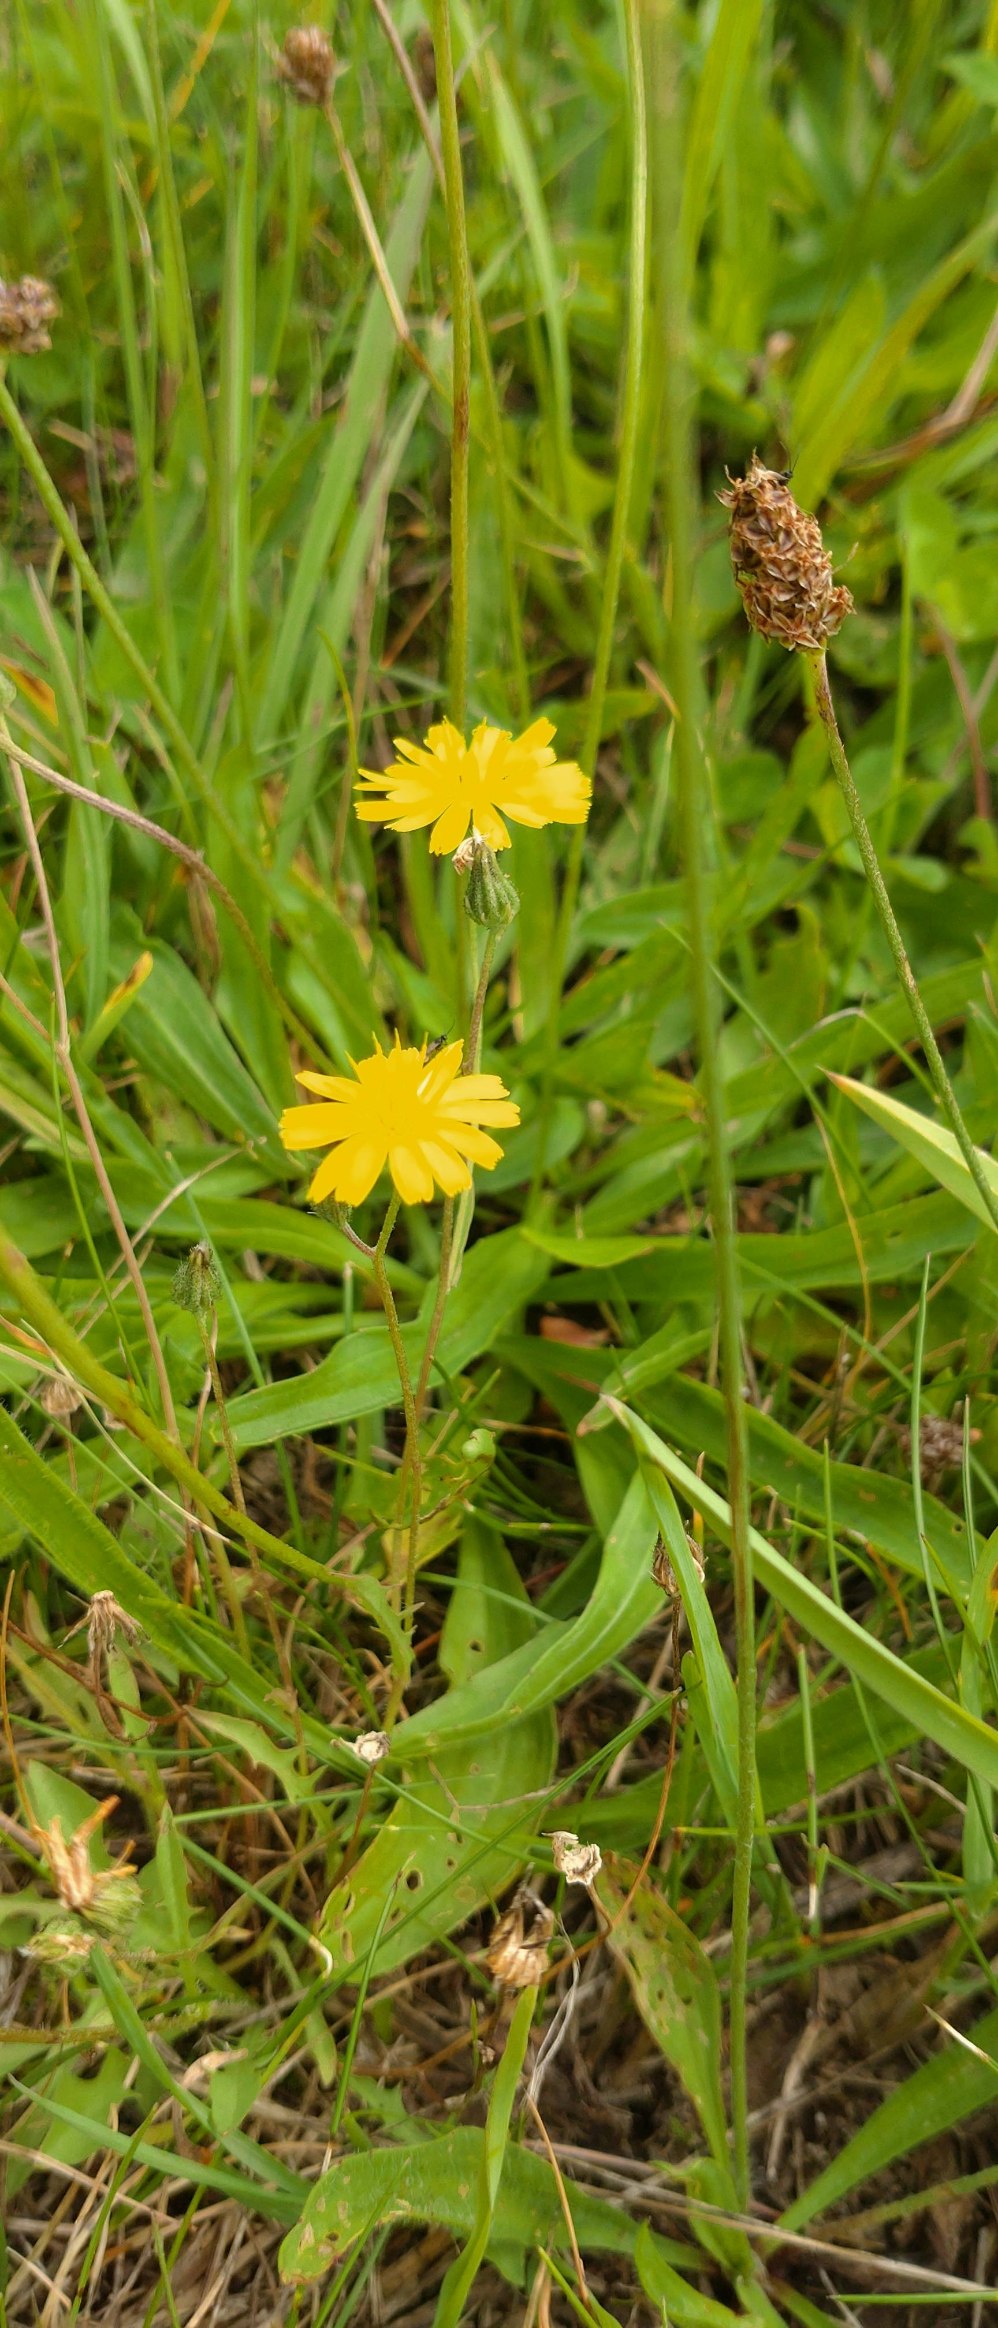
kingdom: Plantae
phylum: Tracheophyta
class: Magnoliopsida
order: Asterales
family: Asteraceae
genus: Crepis
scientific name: Crepis capillaris
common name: Grøn høgeskæg
